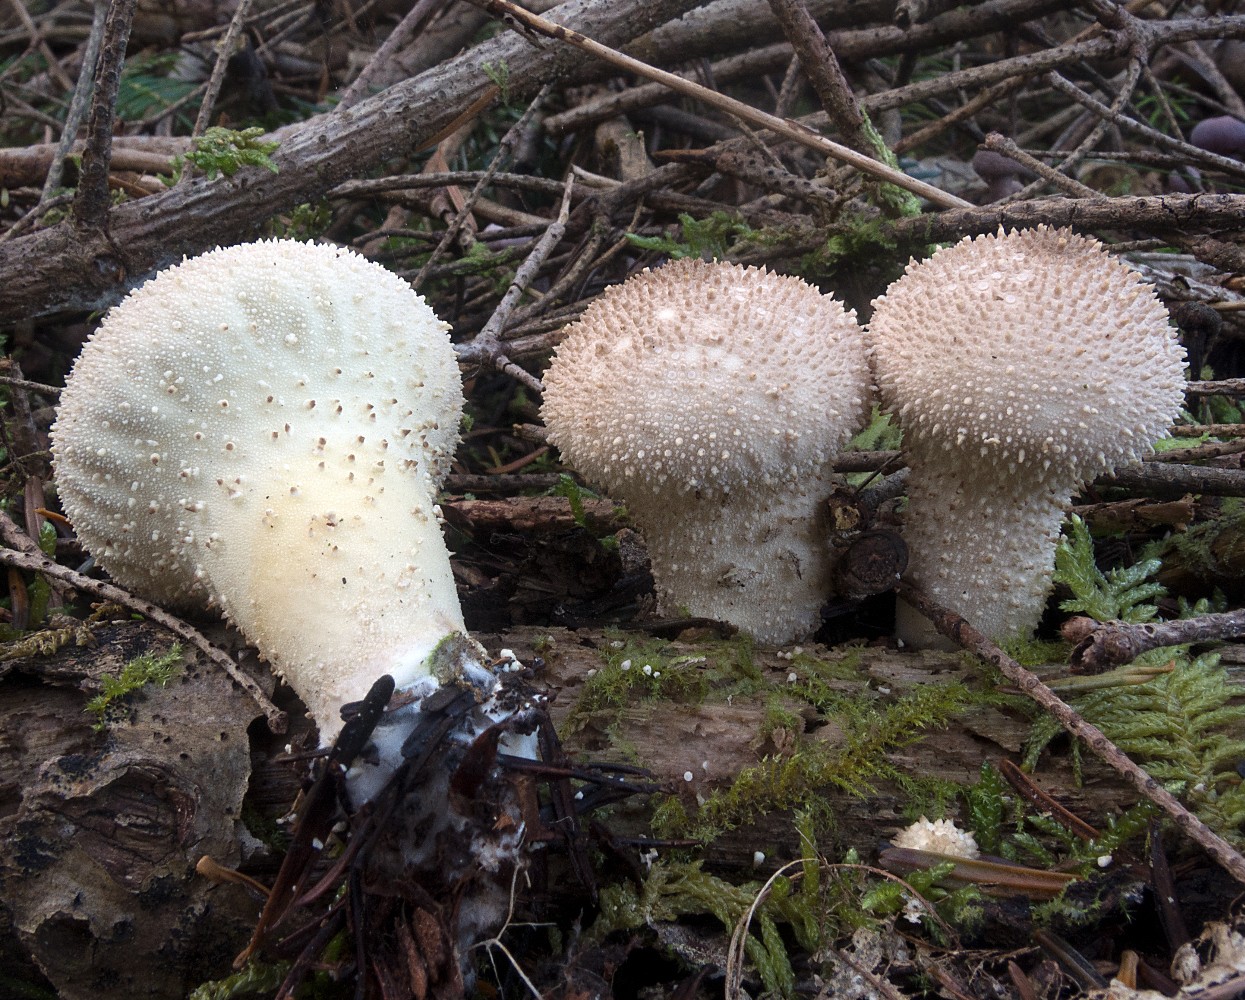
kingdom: Fungi
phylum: Basidiomycota
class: Agaricomycetes
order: Agaricales
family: Lycoperdaceae
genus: Lycoperdon
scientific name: Lycoperdon perlatum
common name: krystal-støvbold
